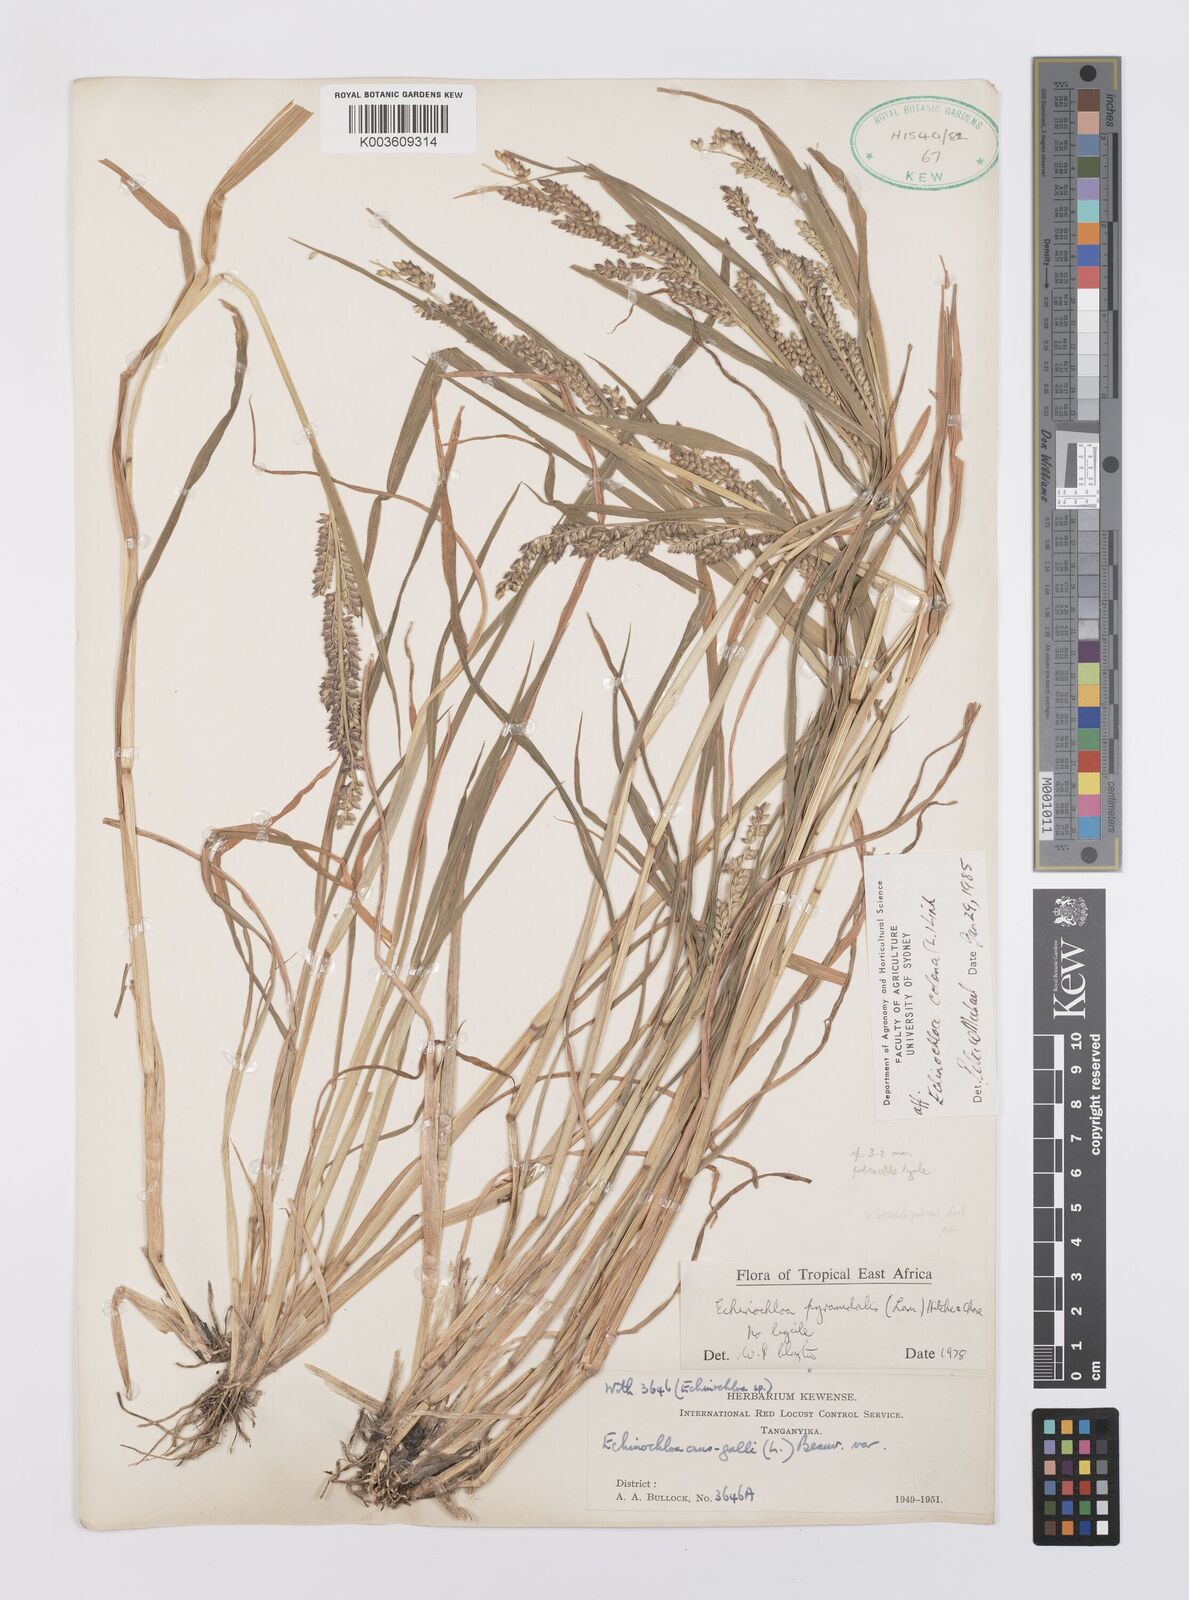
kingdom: Plantae
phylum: Tracheophyta
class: Liliopsida
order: Poales
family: Poaceae
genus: Echinochloa
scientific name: Echinochloa colonum
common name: Jungle rice
